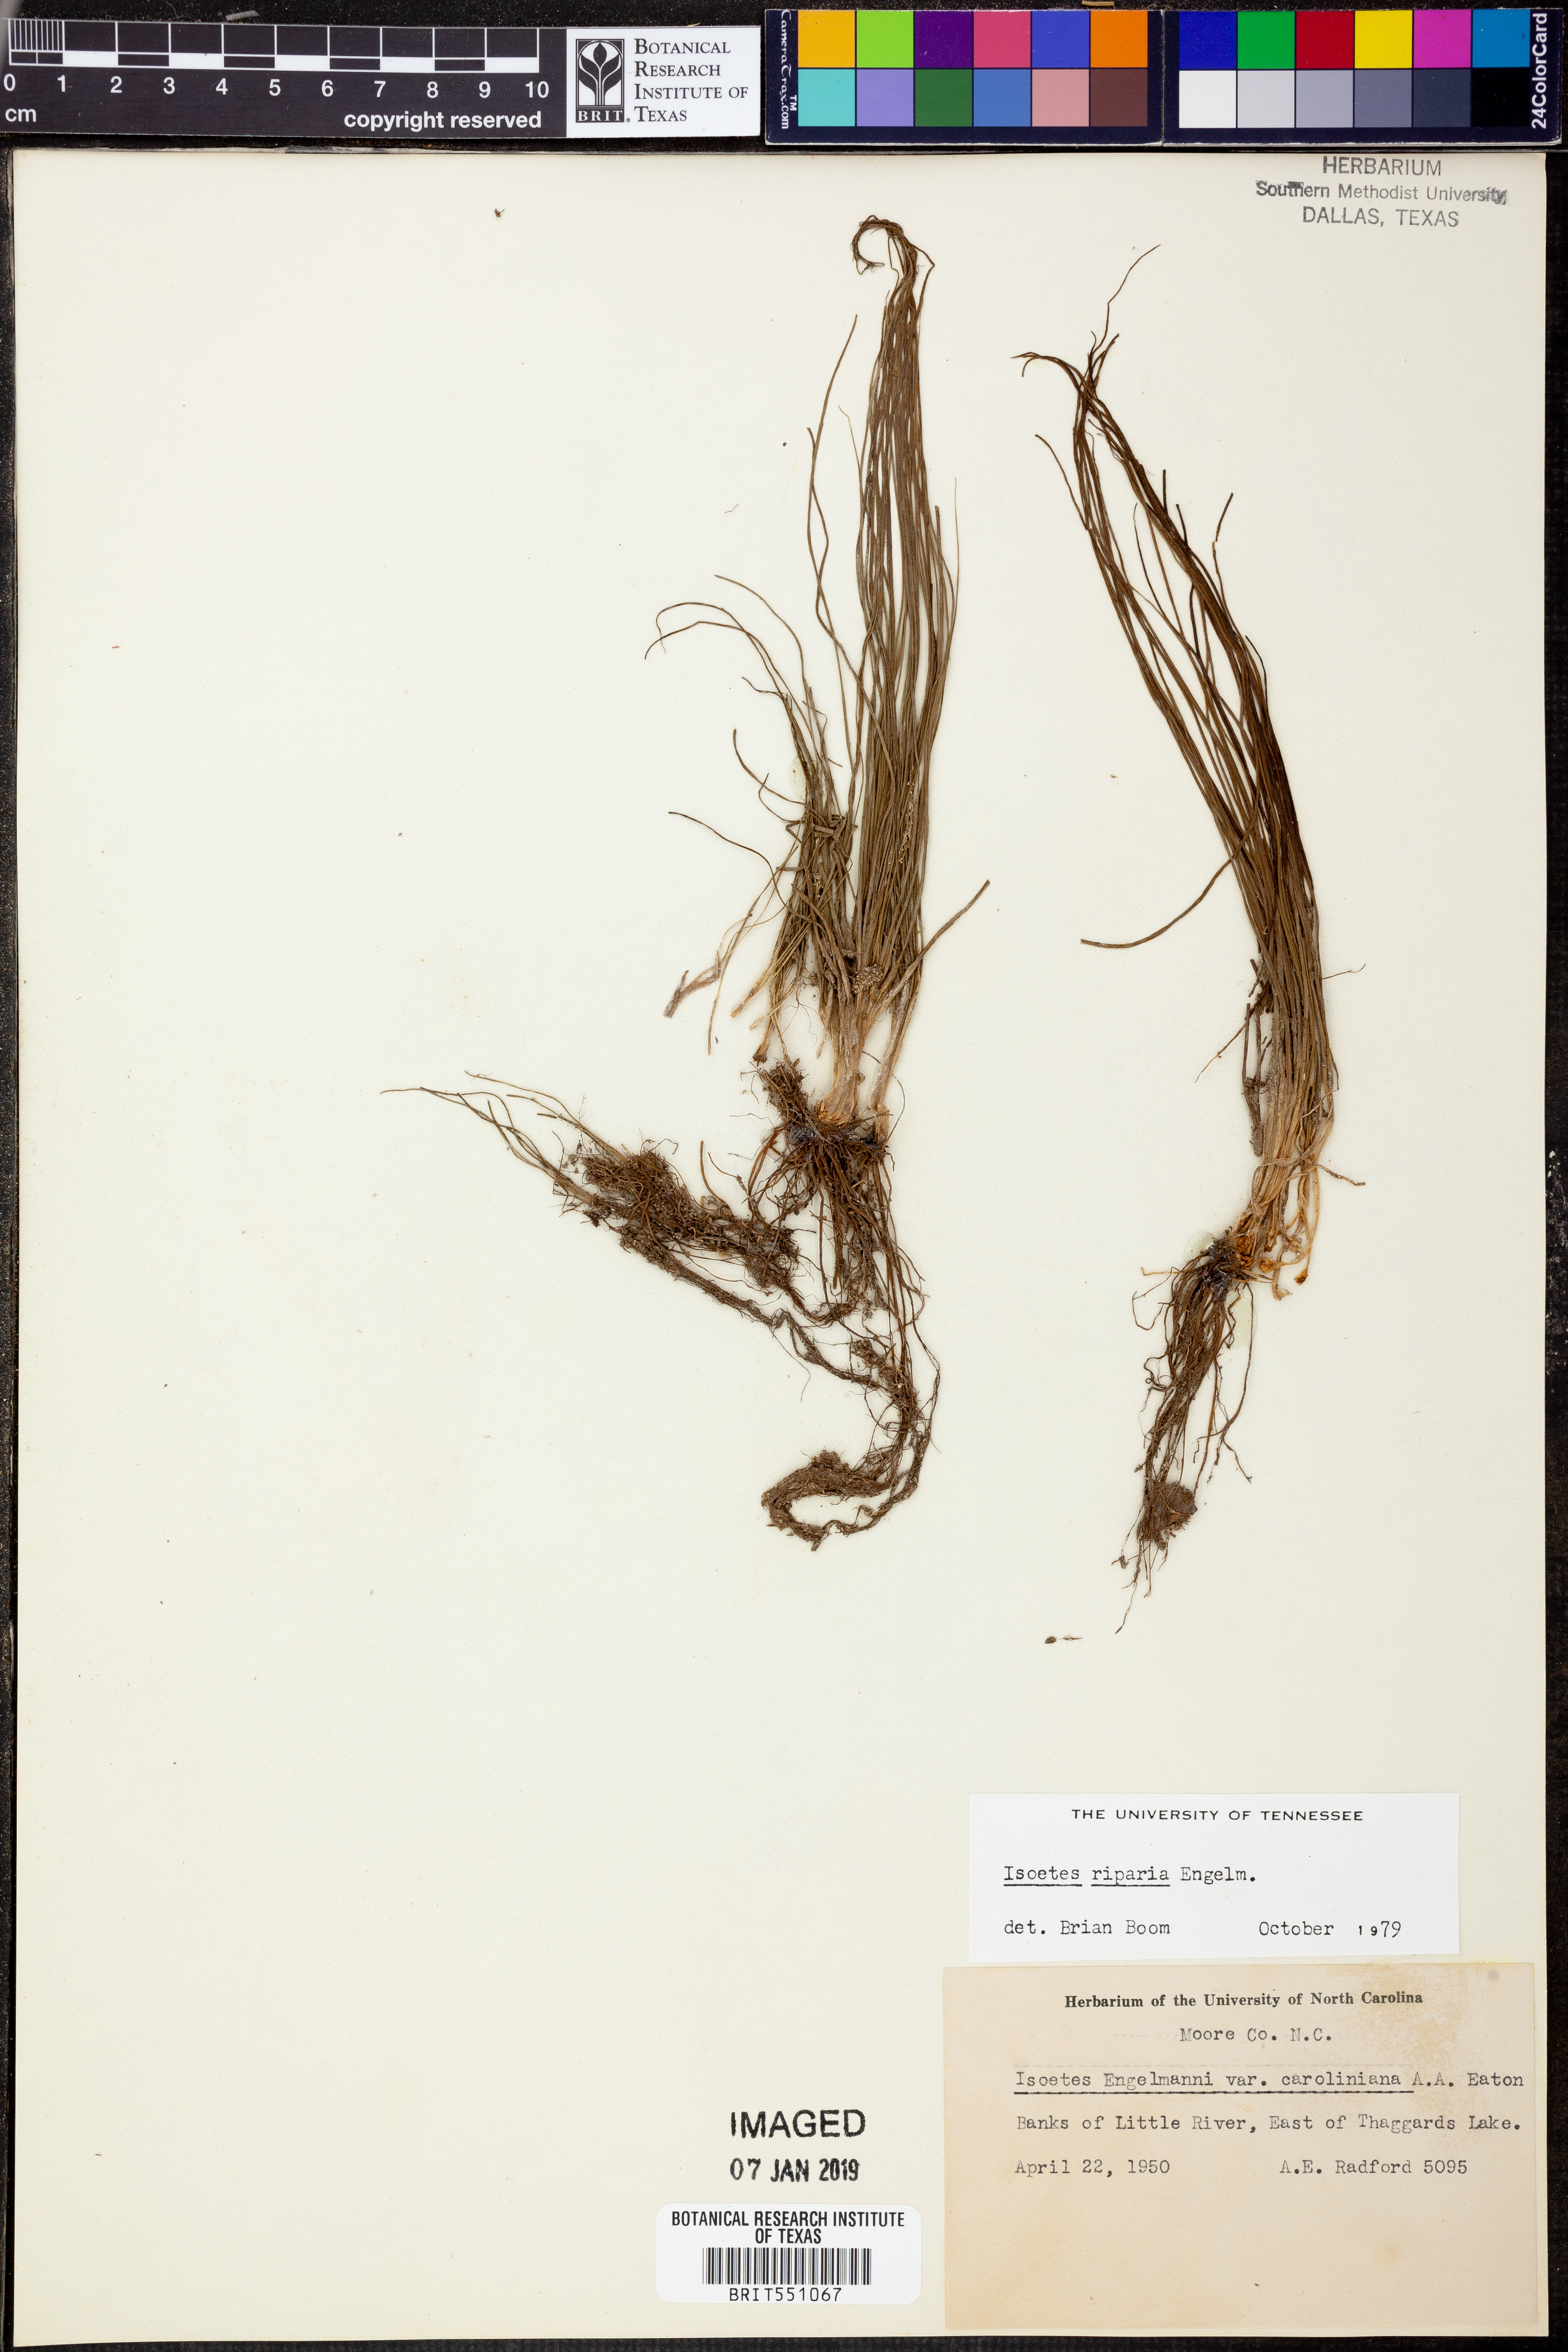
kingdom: Plantae
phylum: Tracheophyta
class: Lycopodiopsida
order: Isoetales
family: Isoetaceae
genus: Isoetes
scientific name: Isoetes riparia
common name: Riverbank quillwort
